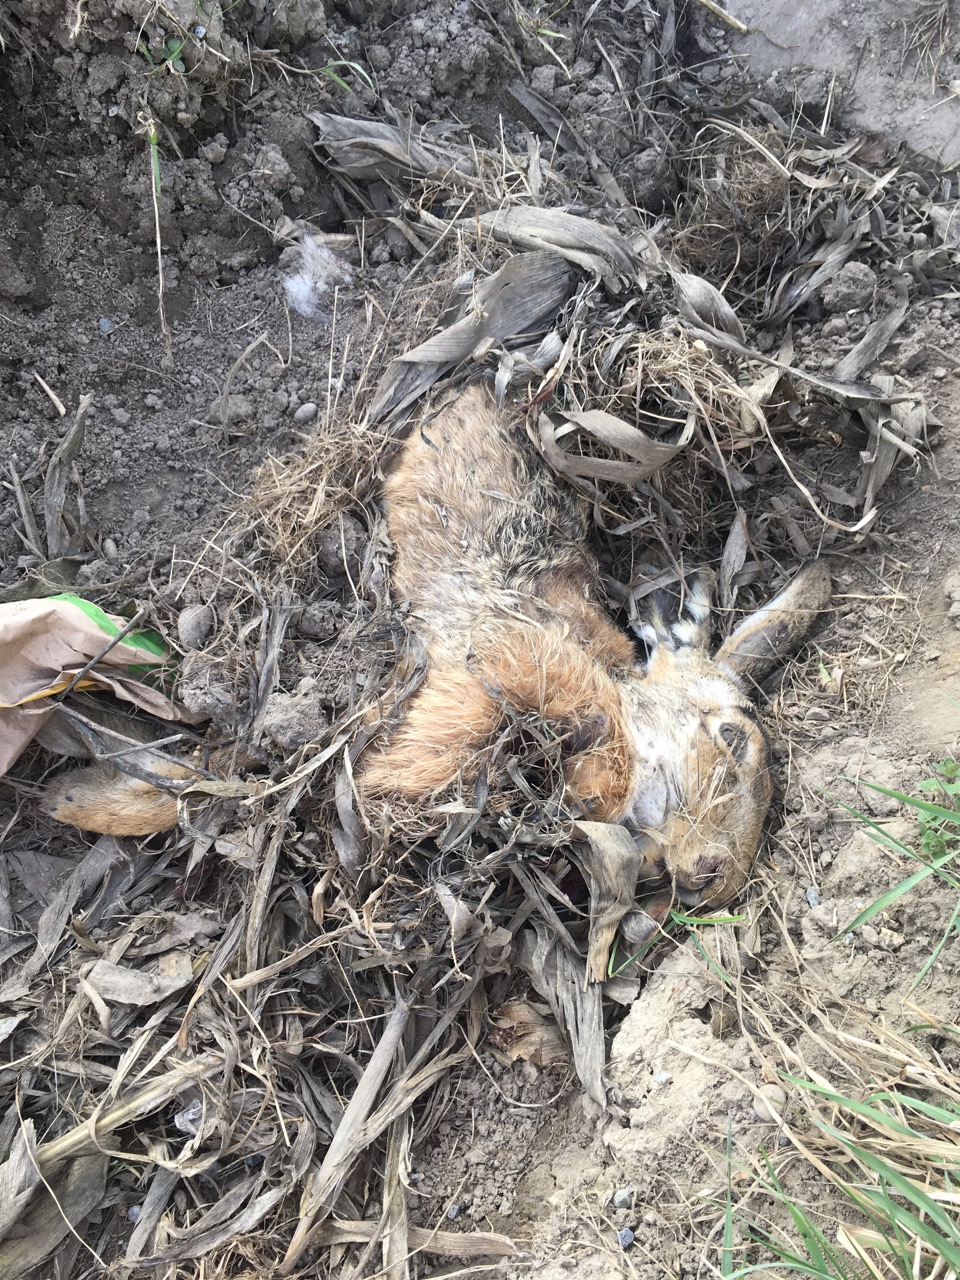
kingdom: Animalia
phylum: Chordata
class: Mammalia
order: Lagomorpha
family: Leporidae
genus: Lepus
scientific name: Lepus europaeus
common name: European hare
